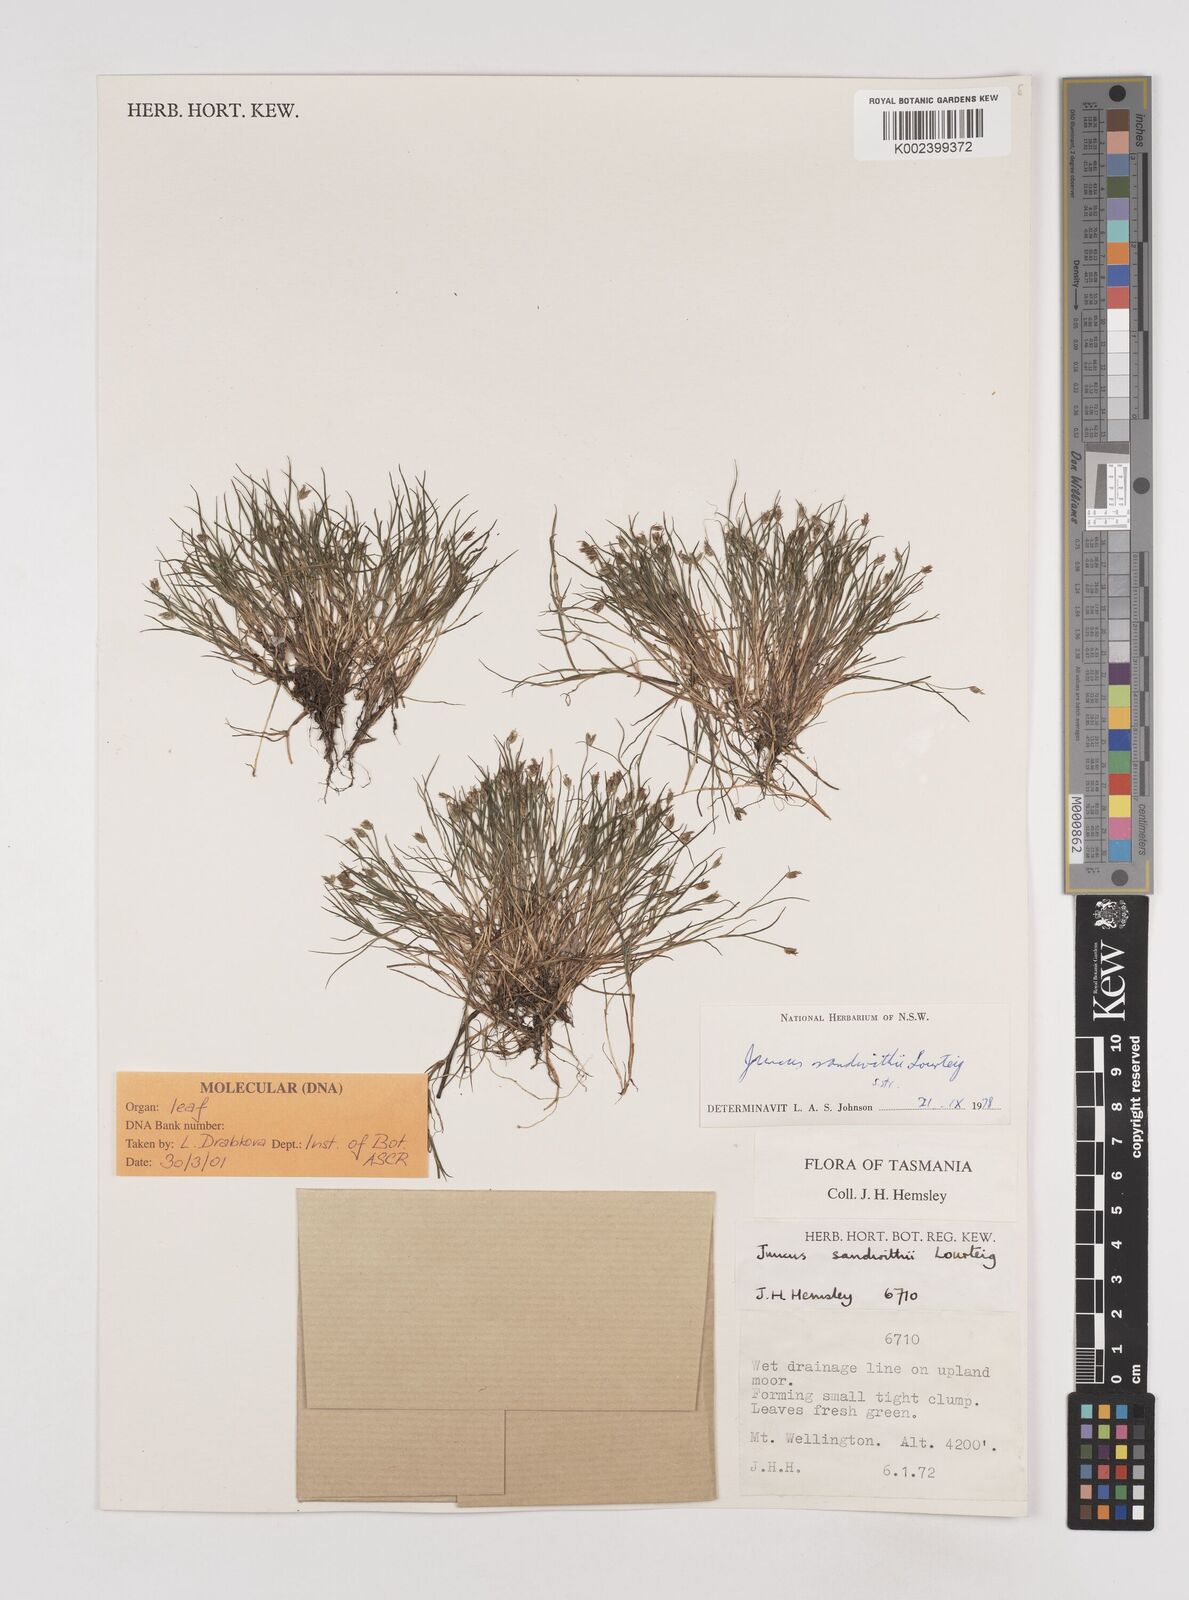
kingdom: Plantae
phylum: Tracheophyta
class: Liliopsida
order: Poales
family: Juncaceae
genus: Juncus
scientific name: Juncus sandwithii
